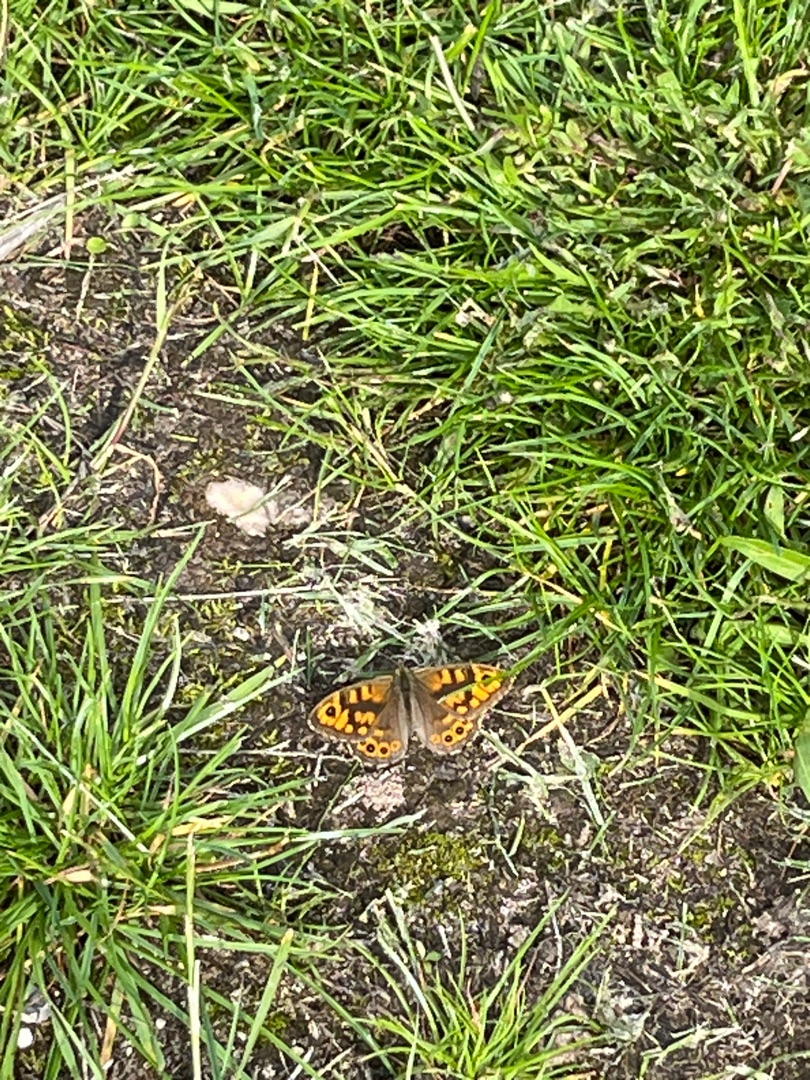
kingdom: Animalia
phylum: Arthropoda
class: Insecta
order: Lepidoptera
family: Nymphalidae
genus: Pararge
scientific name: Pararge Lasiommata megera
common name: Vejrandøje
